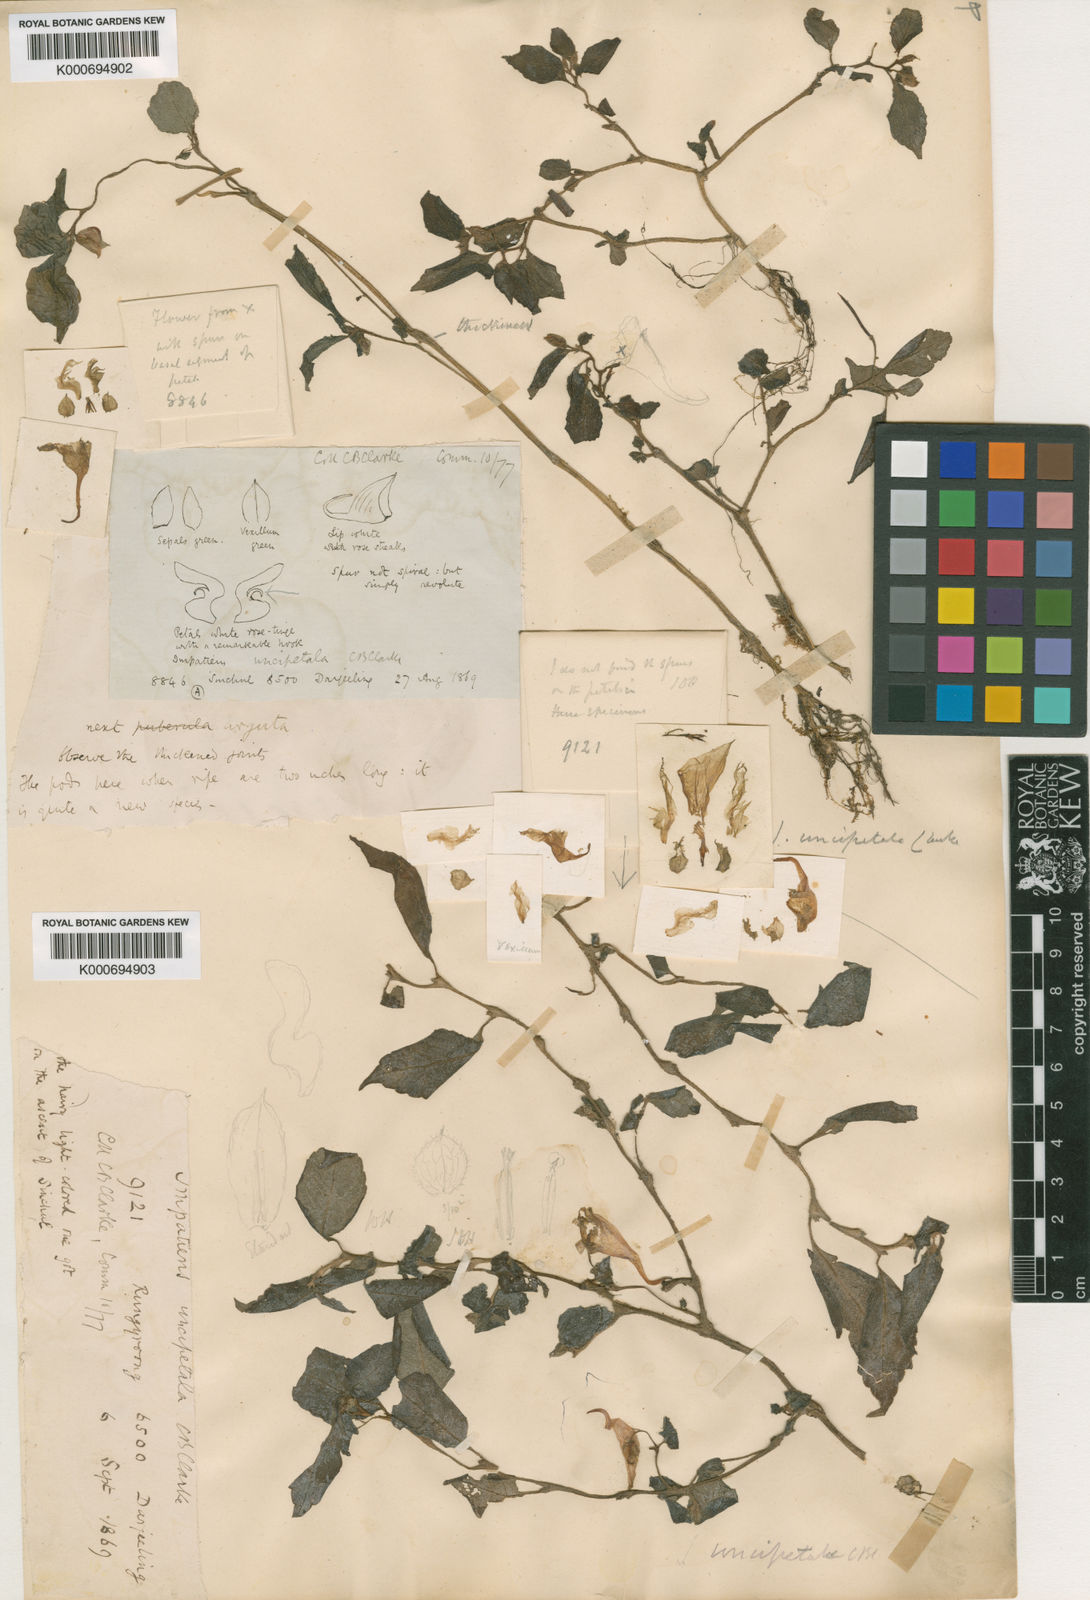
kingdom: Plantae
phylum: Tracheophyta
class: Magnoliopsida
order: Ericales
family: Balsaminaceae
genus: Impatiens
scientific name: Impatiens uncipetala
